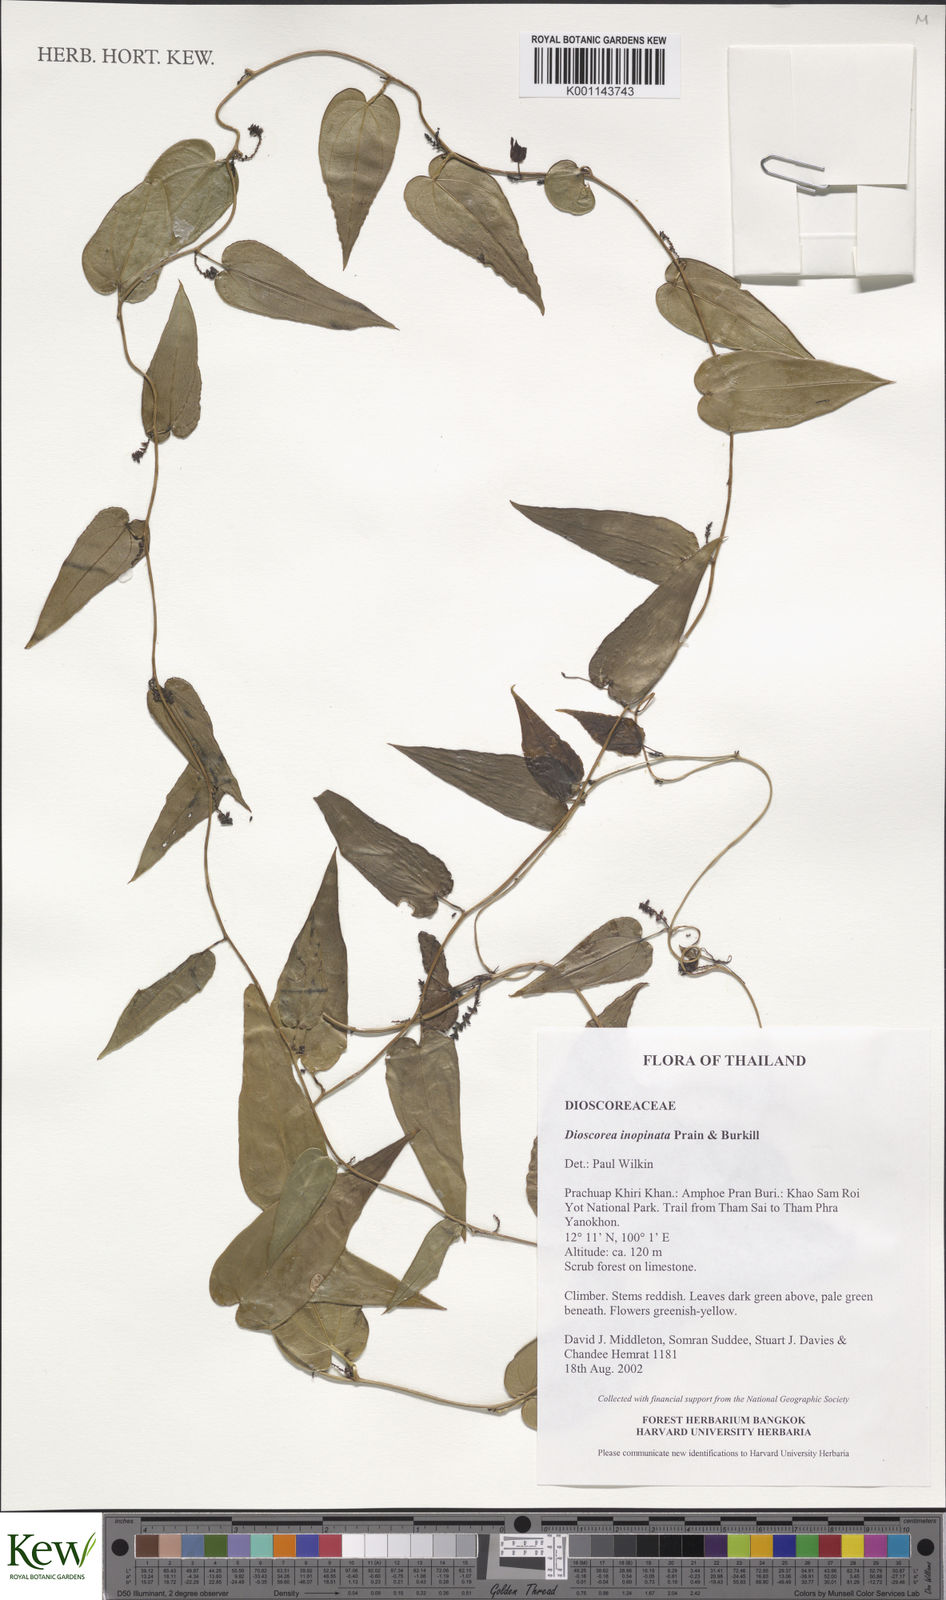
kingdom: Plantae
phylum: Tracheophyta
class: Liliopsida
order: Dioscoreales
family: Dioscoreaceae
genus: Dioscorea
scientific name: Dioscorea inopinata
